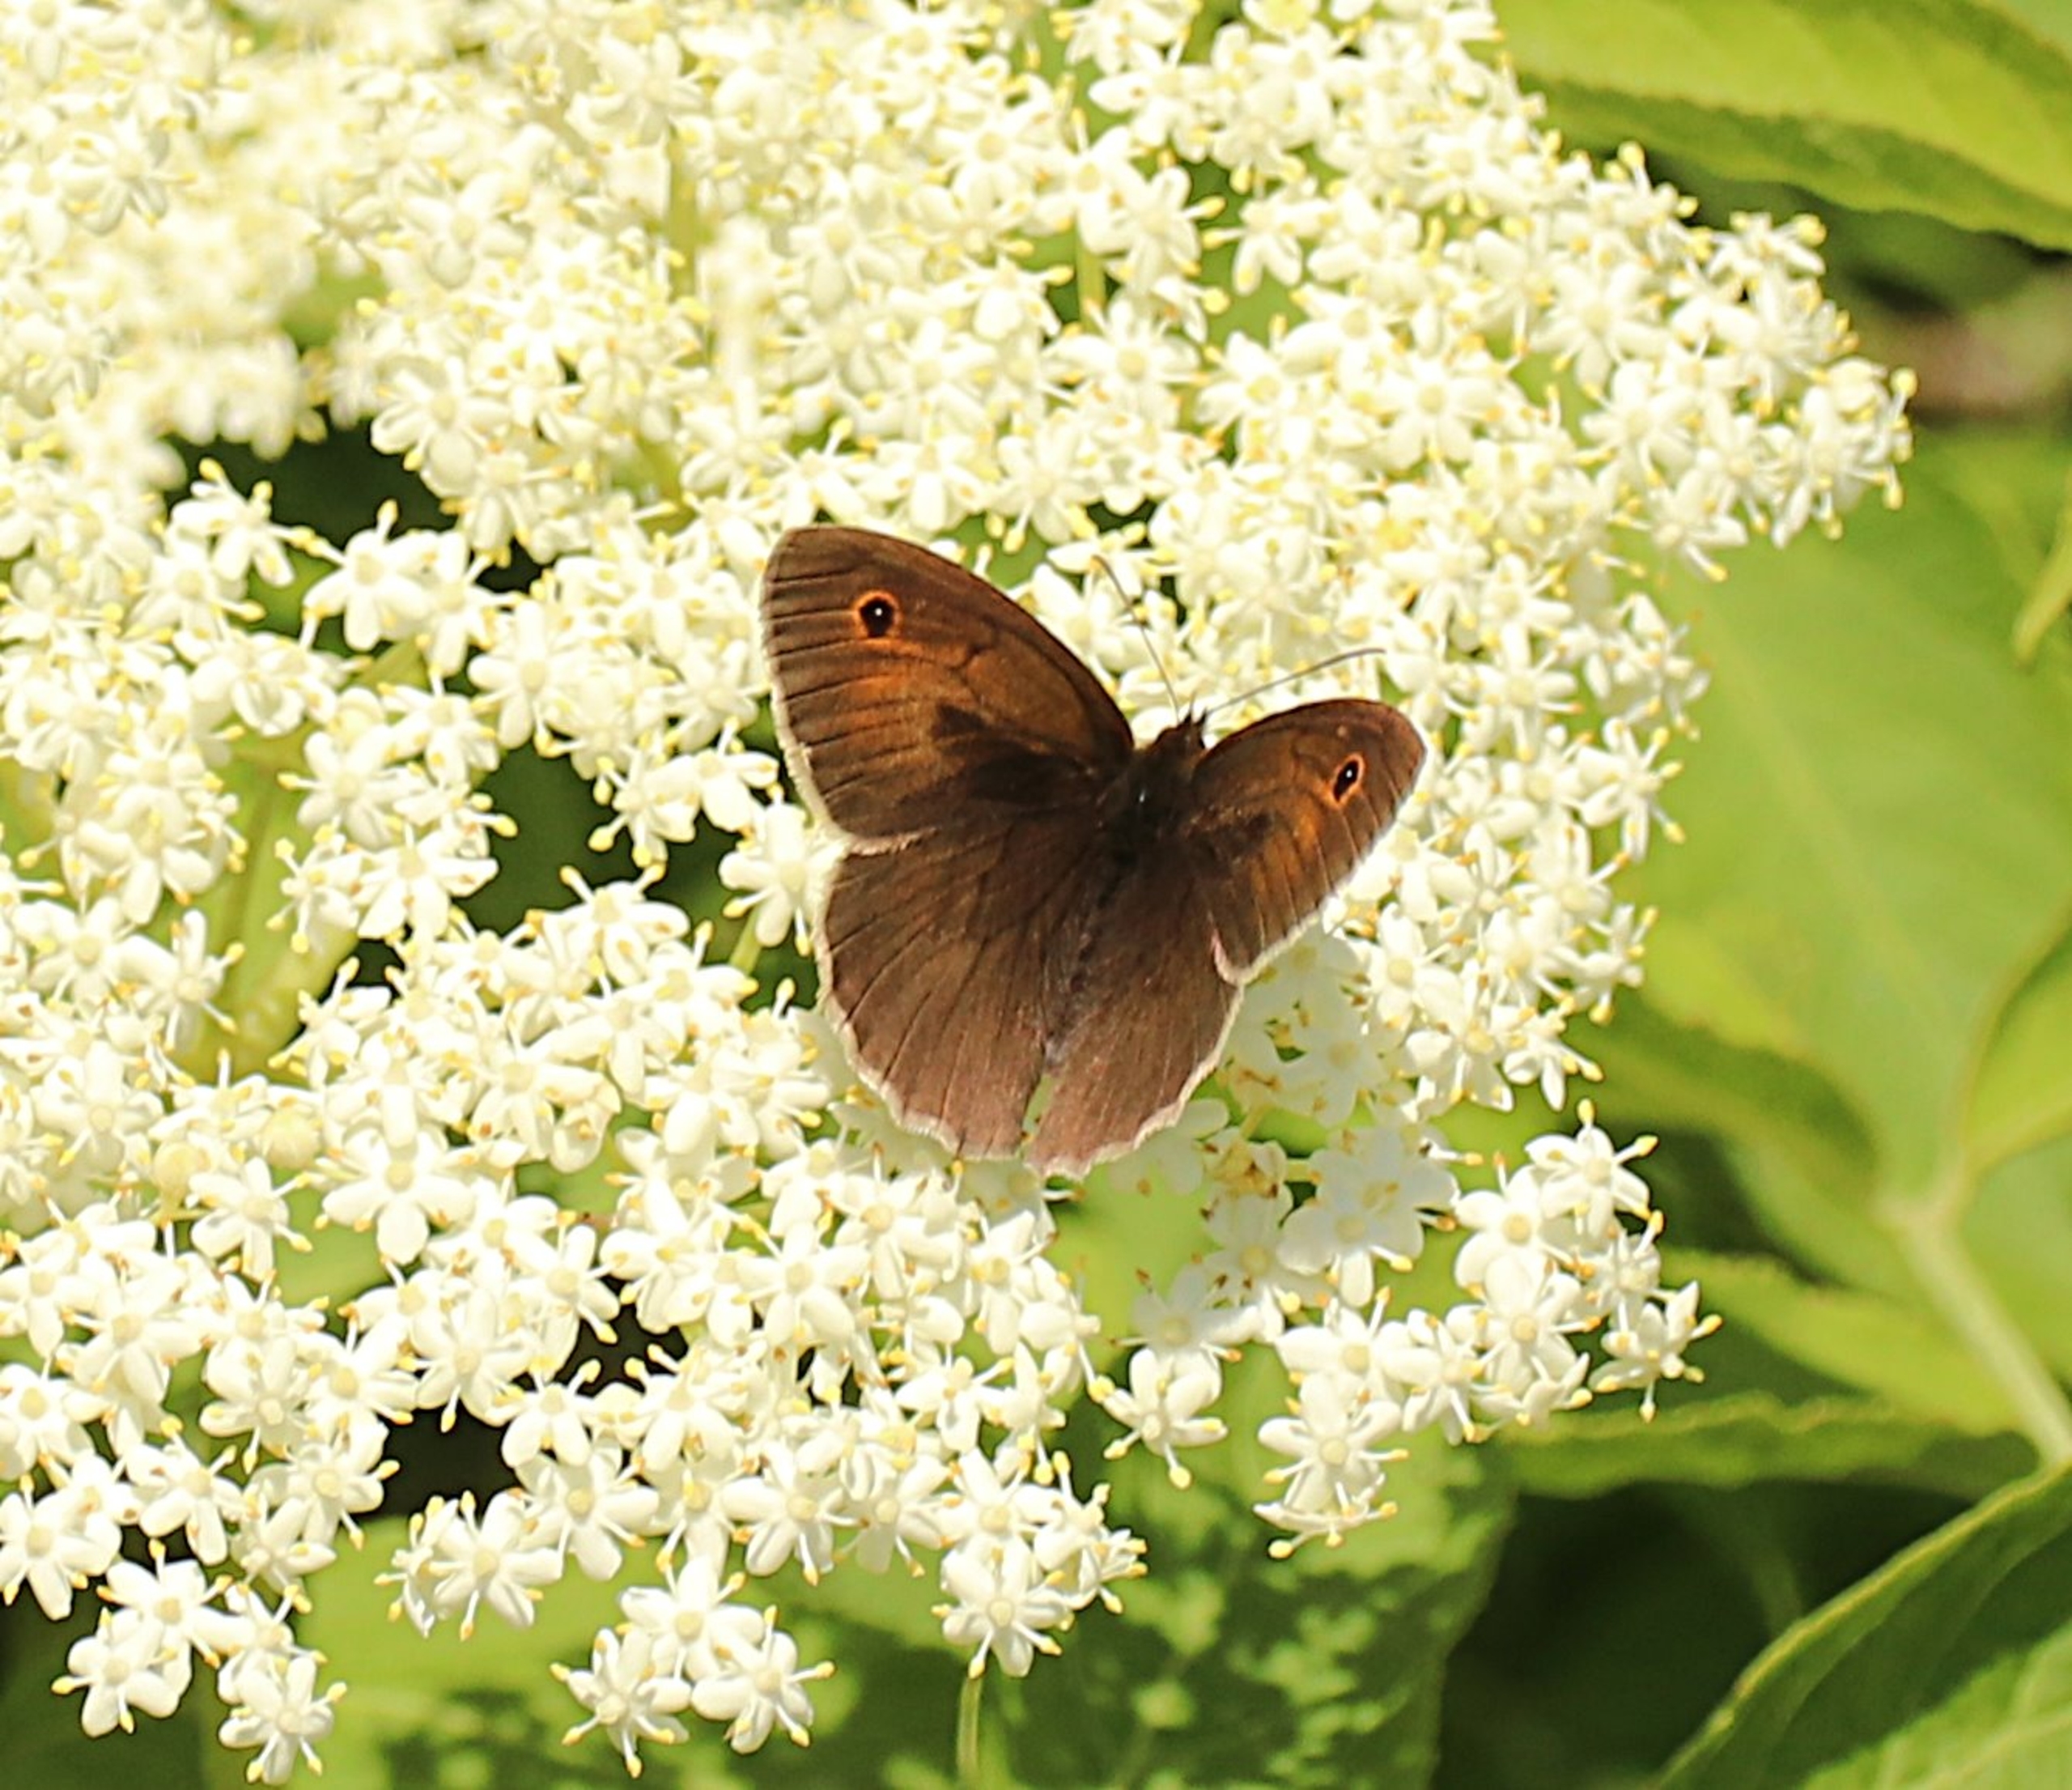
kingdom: Animalia
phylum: Arthropoda
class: Insecta
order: Lepidoptera
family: Nymphalidae
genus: Maniola
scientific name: Maniola jurtina
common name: Græsrandøje
